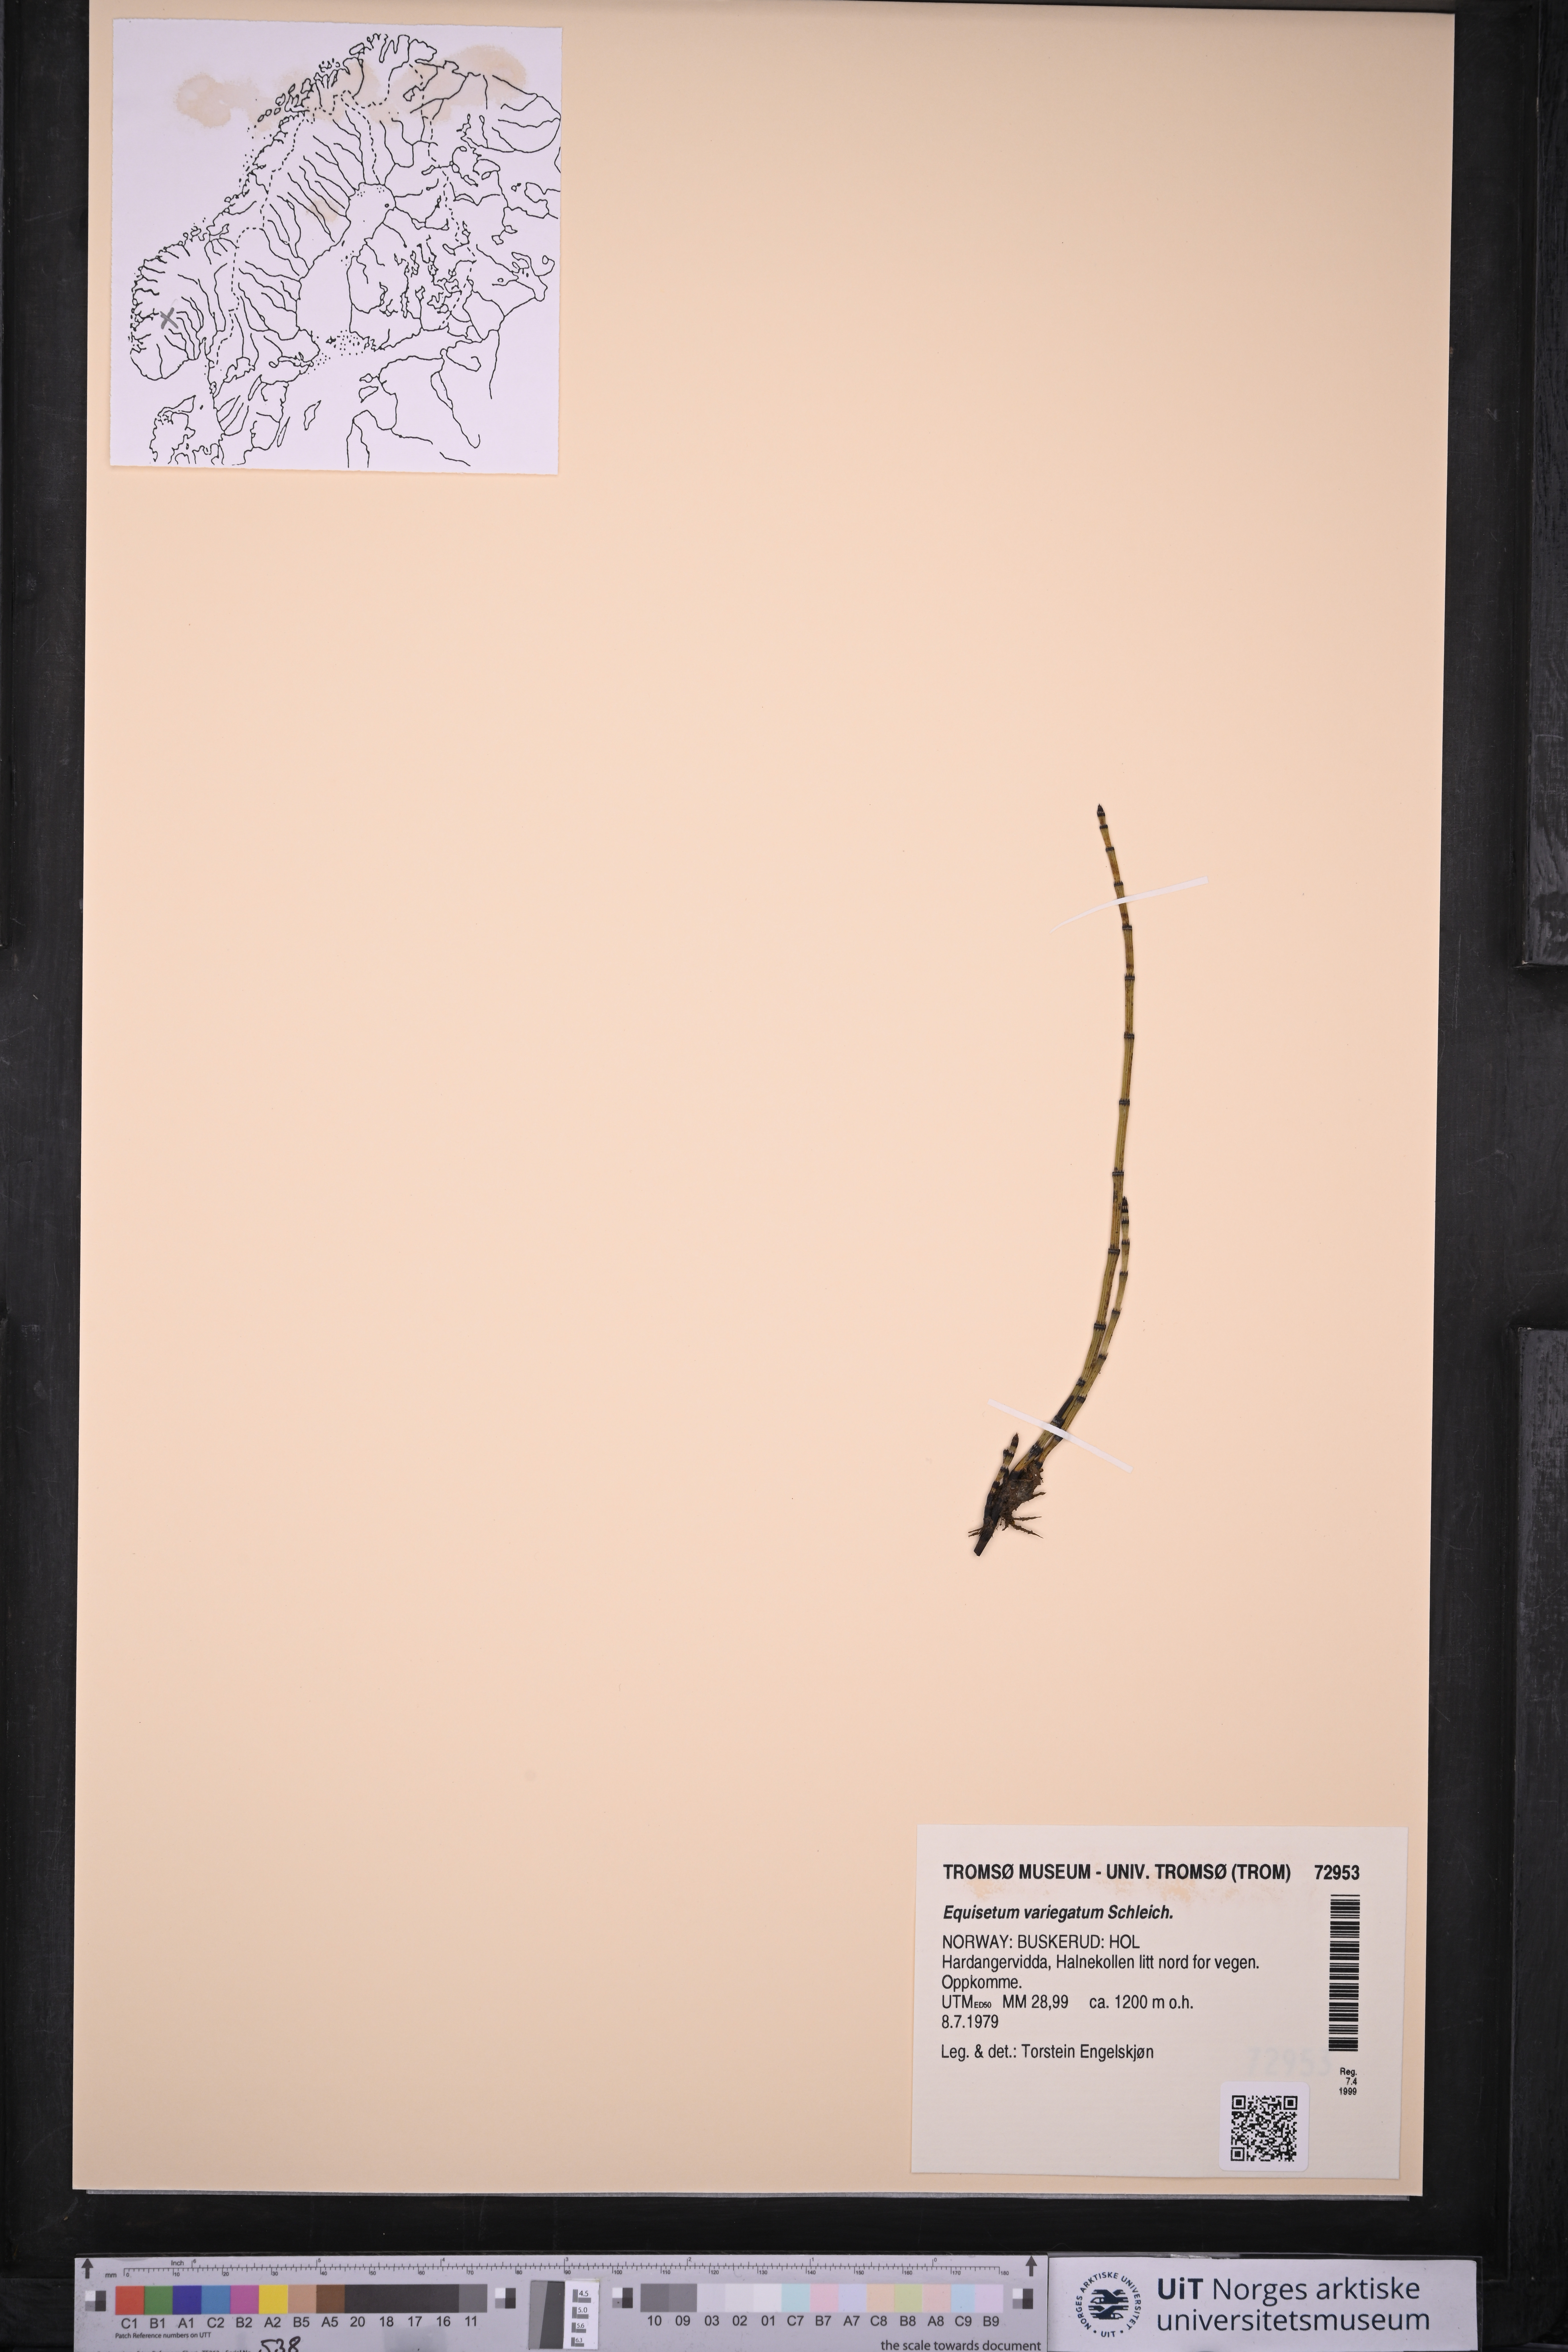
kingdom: Plantae
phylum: Tracheophyta
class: Polypodiopsida
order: Equisetales
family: Equisetaceae
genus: Equisetum
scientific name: Equisetum variegatum
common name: Variegated horsetail
